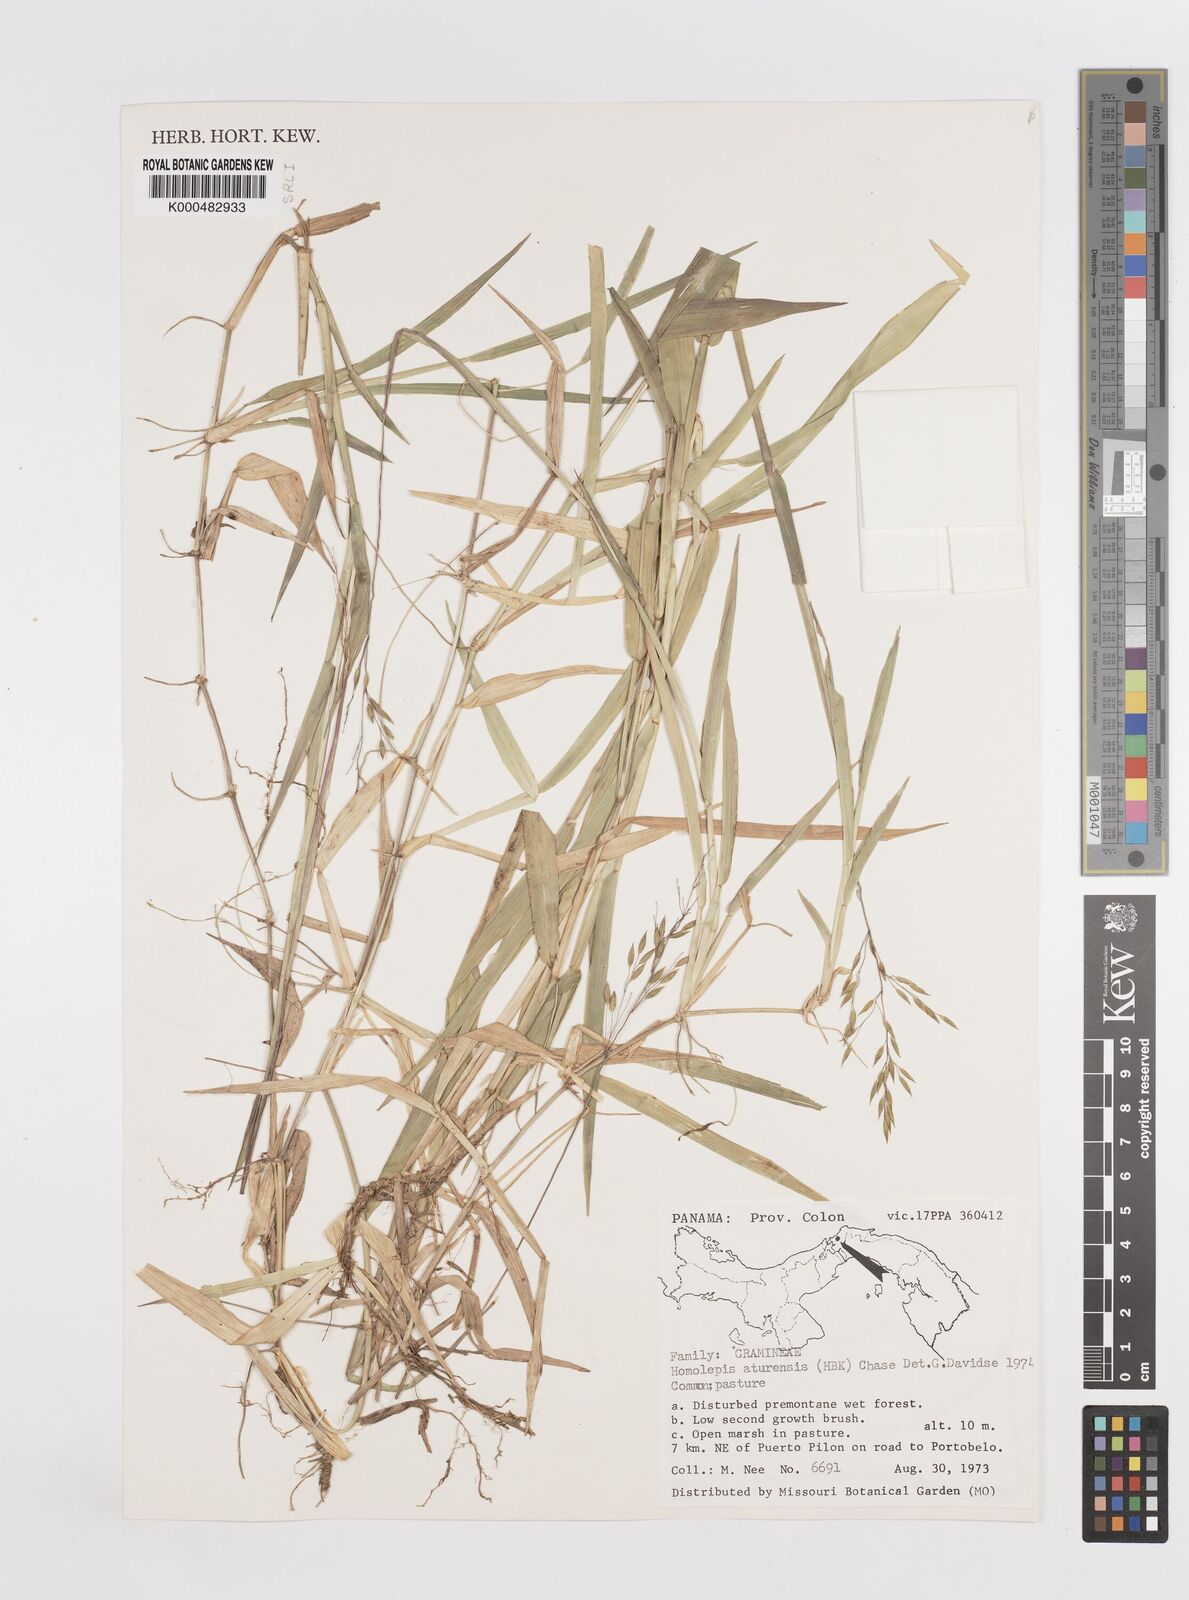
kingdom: Plantae
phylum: Tracheophyta
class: Liliopsida
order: Poales
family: Poaceae
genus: Homolepis
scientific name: Homolepis aturensis
